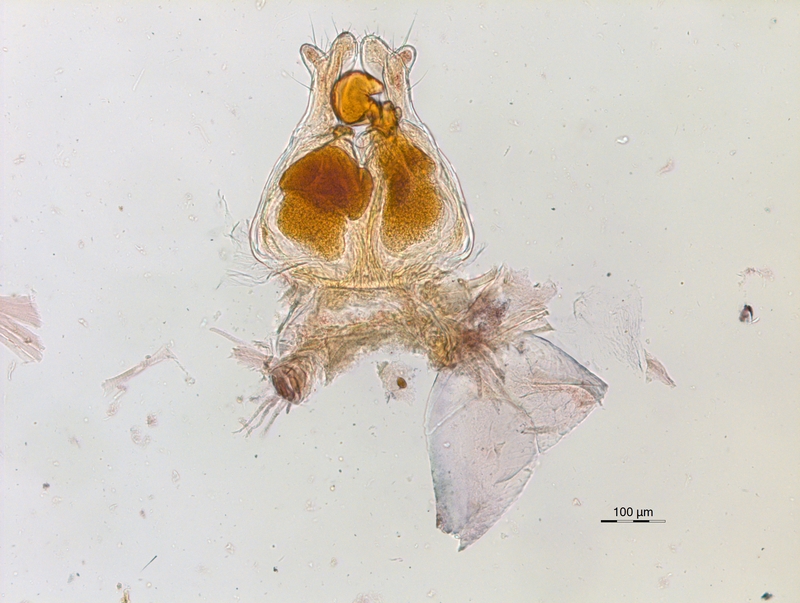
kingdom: Animalia
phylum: Arthropoda
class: Diplopoda
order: Chordeumatida
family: Chordeumatidae
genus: Melogona
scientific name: Melogona voigtii
